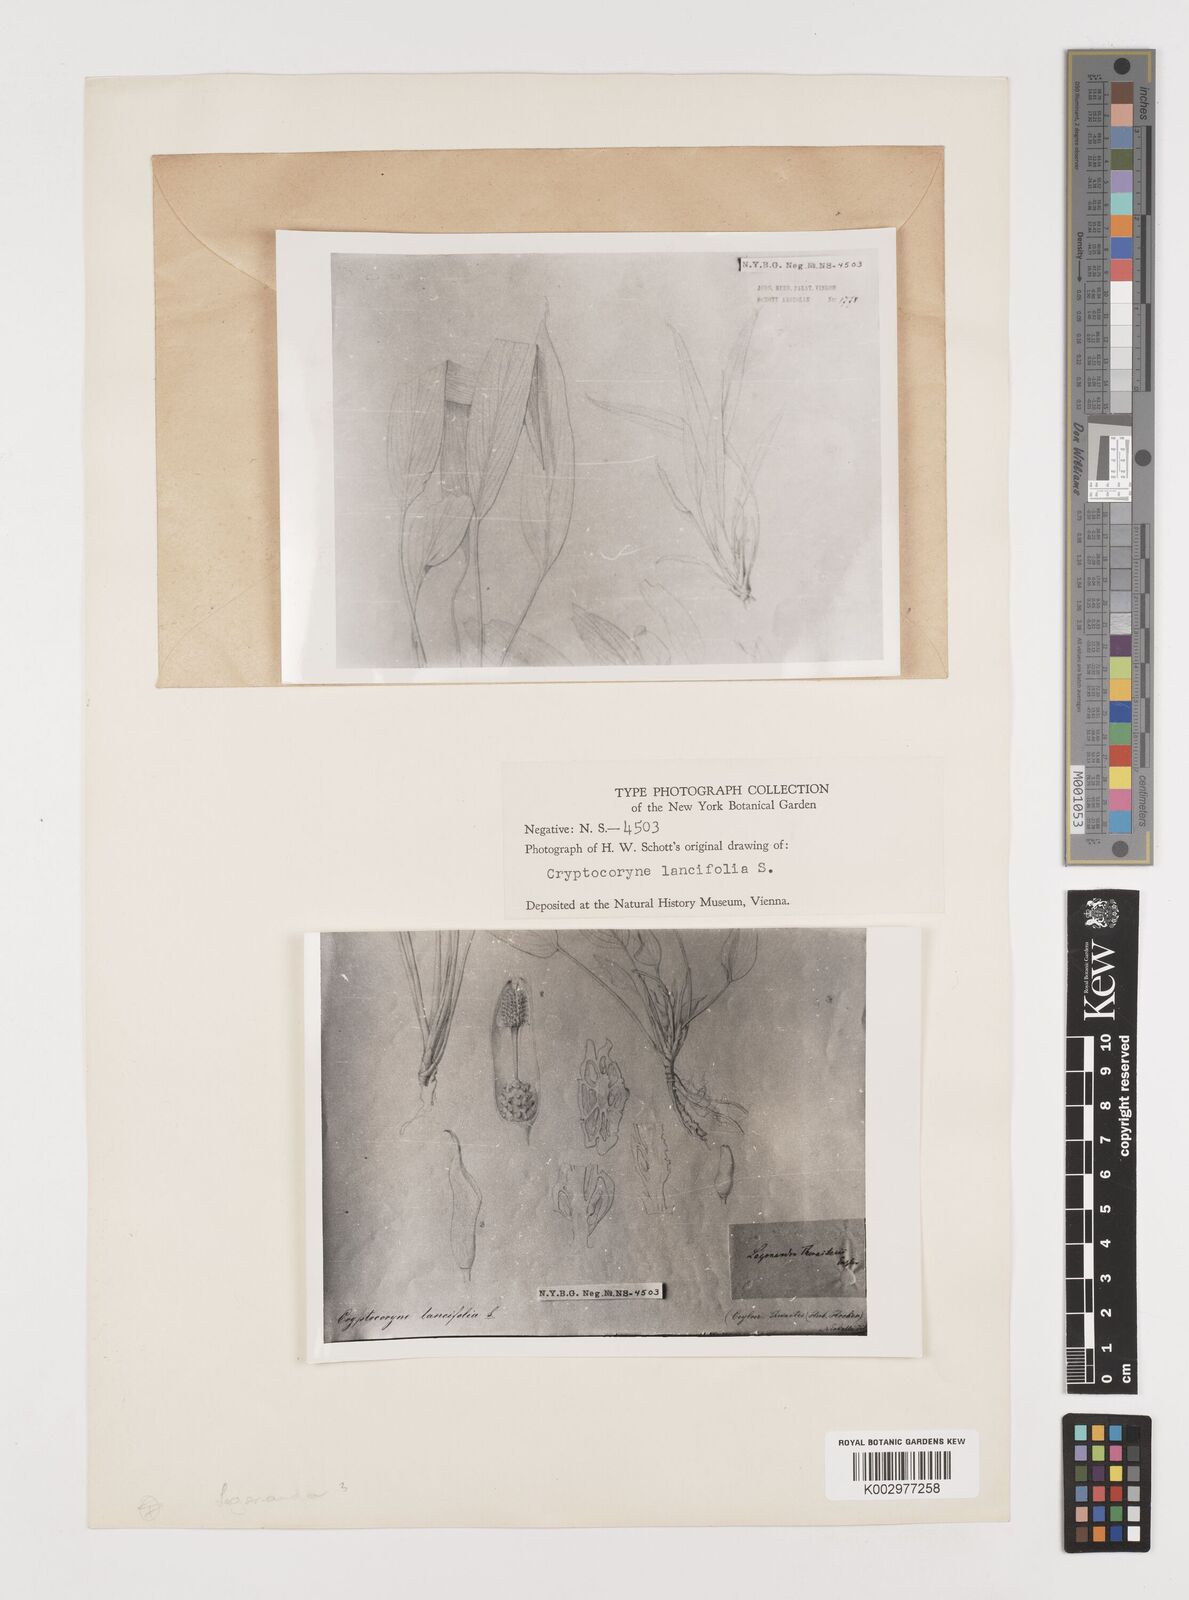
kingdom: Plantae
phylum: Tracheophyta
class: Liliopsida
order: Alismatales
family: Araceae
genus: Lagenandra
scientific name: Lagenandra lancifolia
